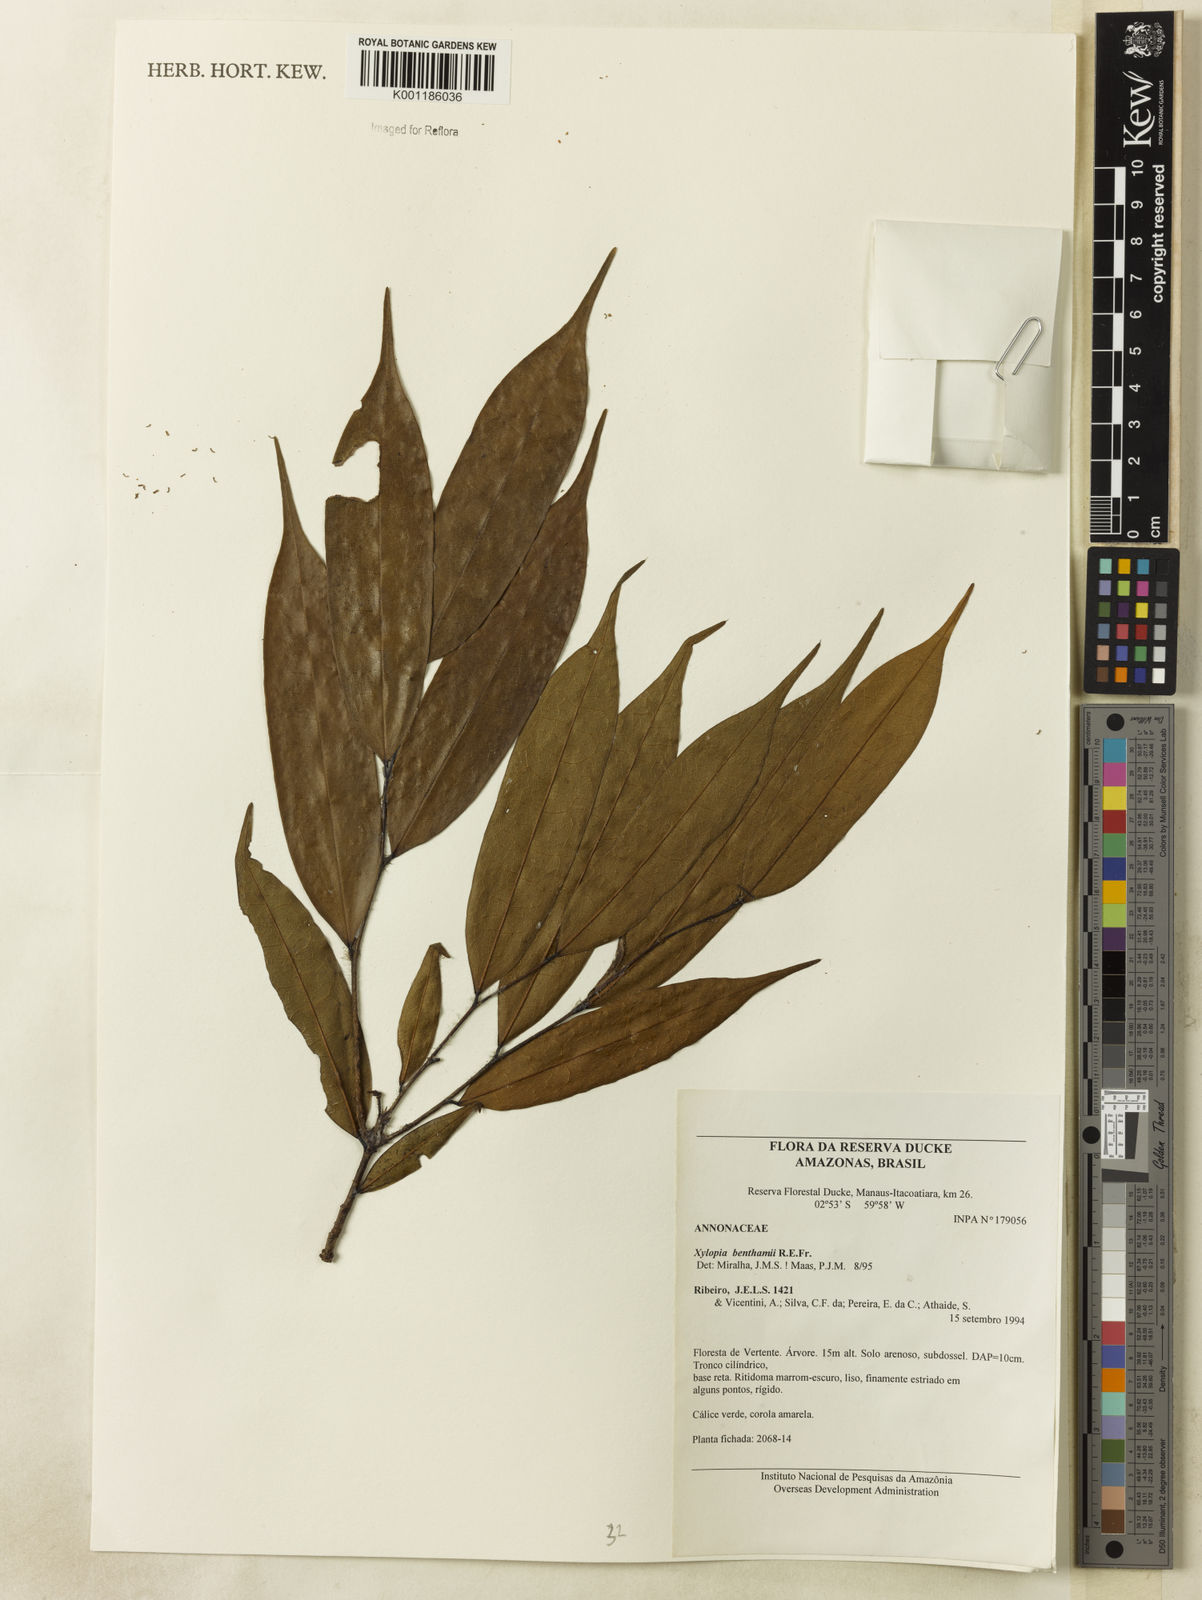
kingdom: Plantae
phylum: Tracheophyta
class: Magnoliopsida
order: Magnoliales
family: Annonaceae
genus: Xylopia
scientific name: Xylopia benthamii
